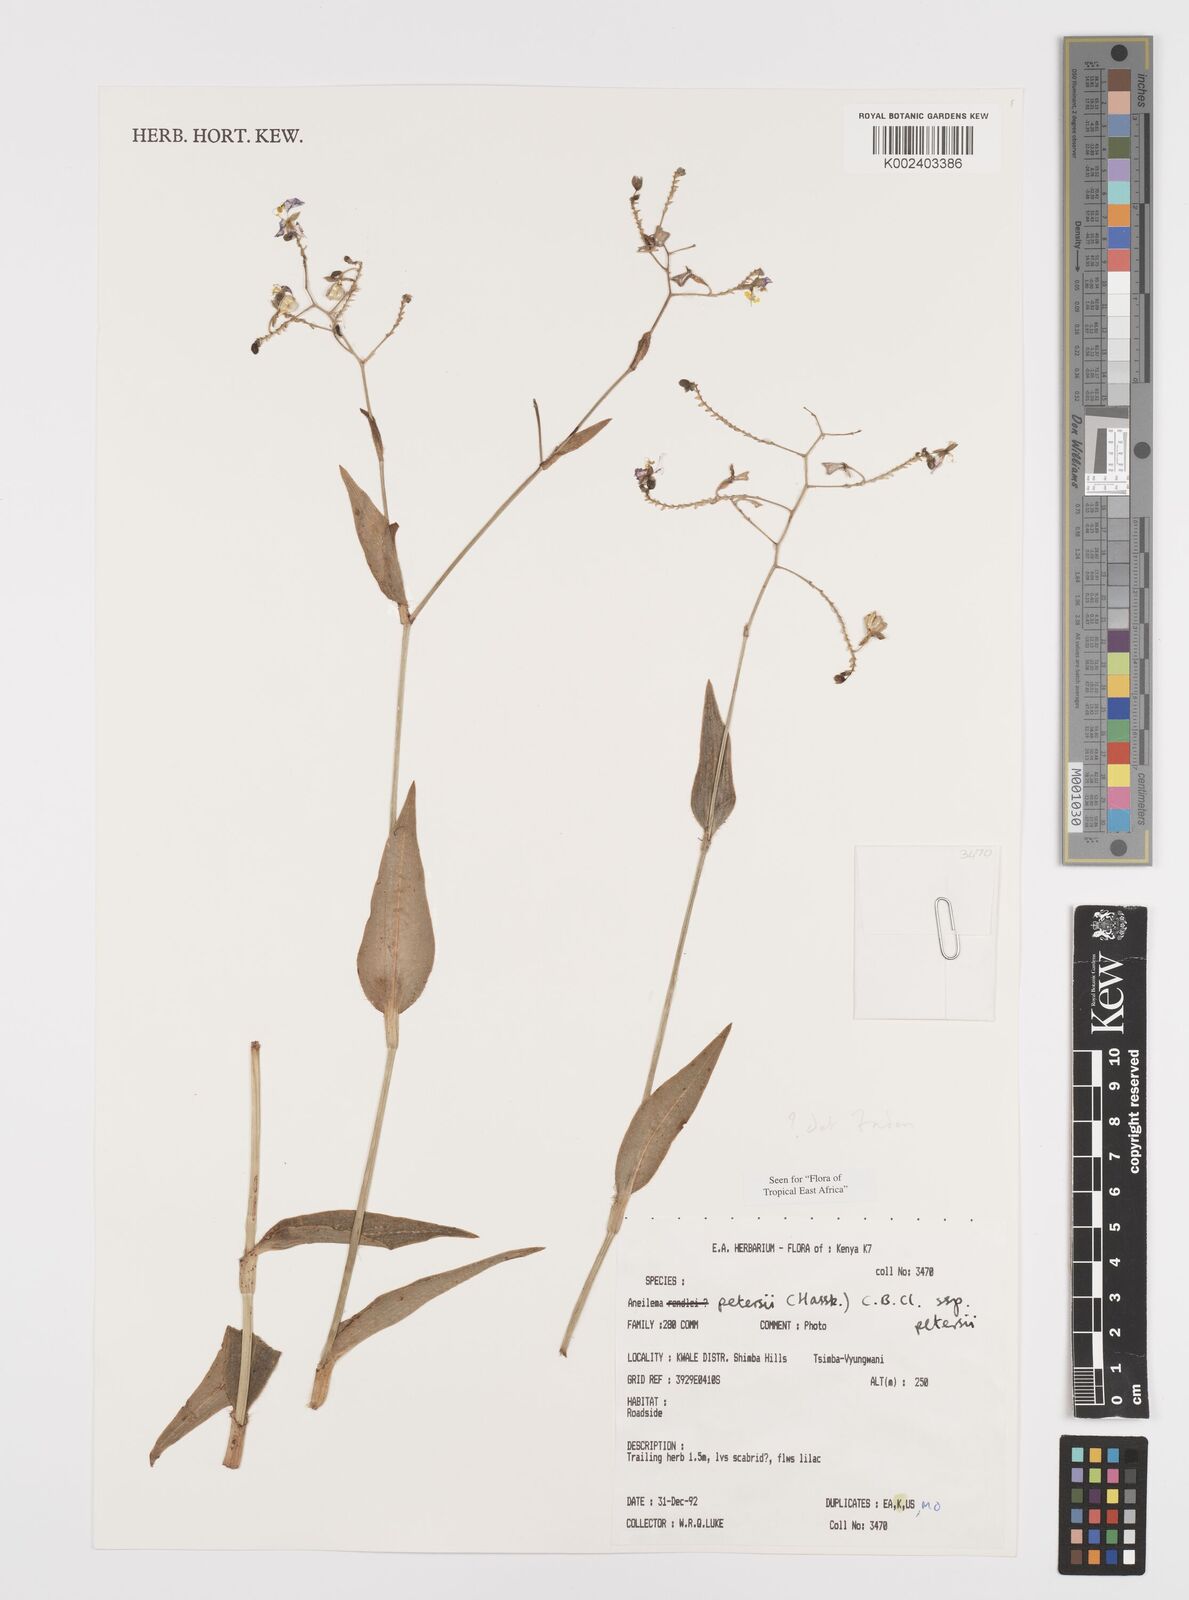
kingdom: Plantae
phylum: Tracheophyta
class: Liliopsida
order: Commelinales
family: Commelinaceae
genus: Aneilema
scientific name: Aneilema petersii
